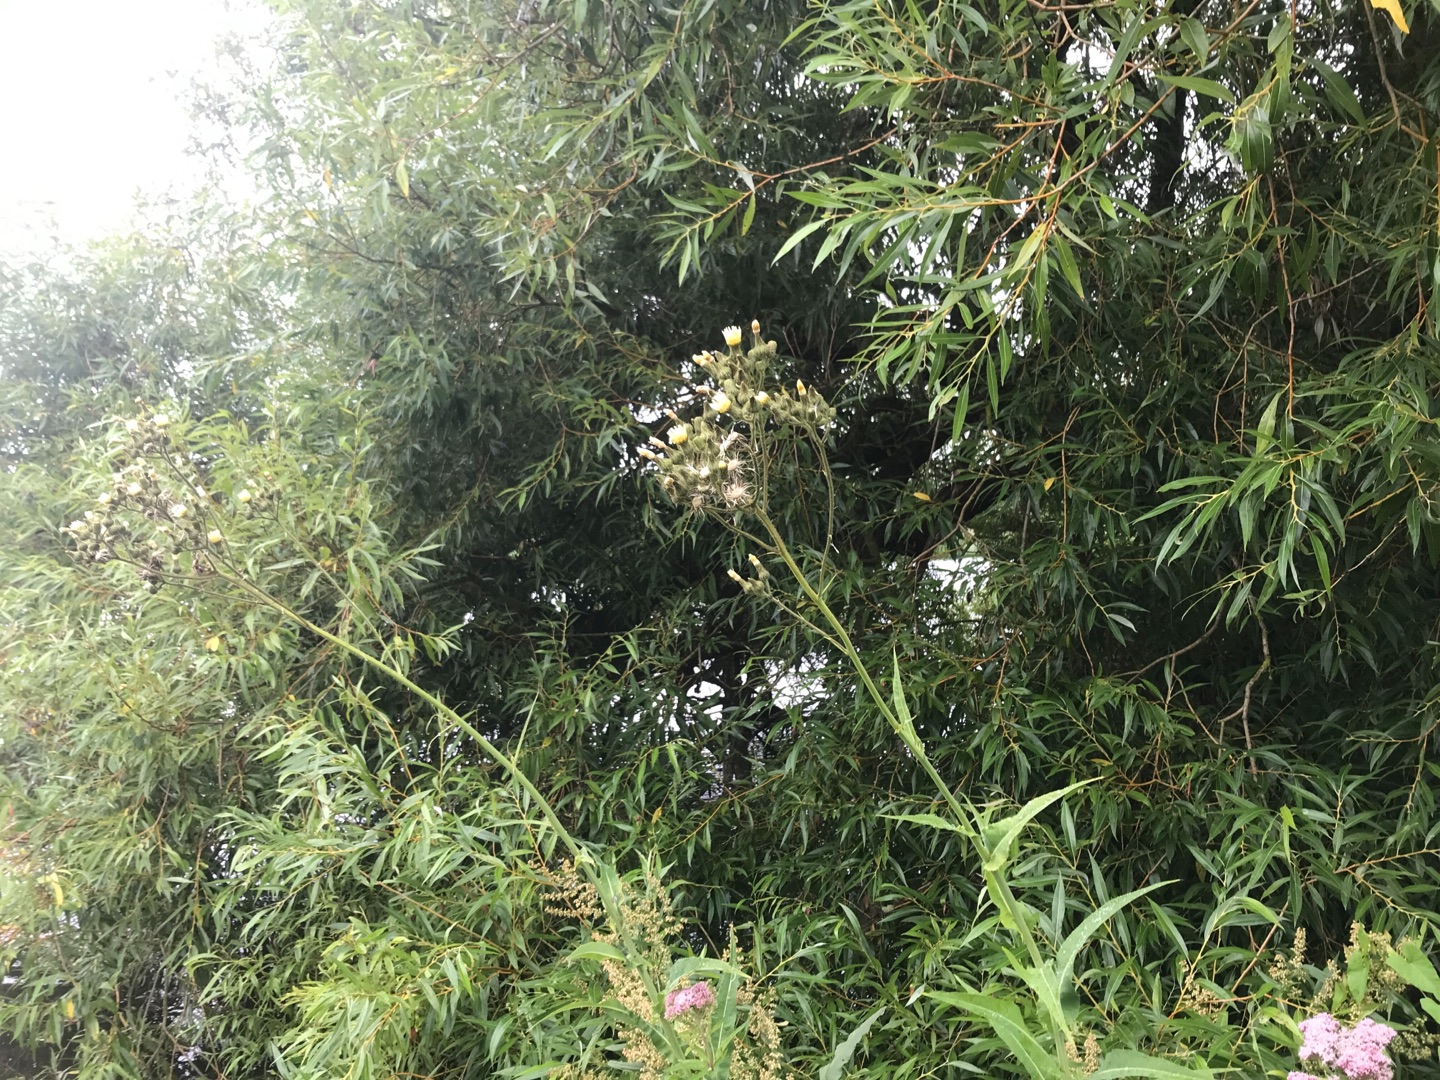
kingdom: Plantae
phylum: Tracheophyta
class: Magnoliopsida
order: Asterales
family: Asteraceae
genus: Sonchus
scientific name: Sonchus palustris
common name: Kær-svinemælk
